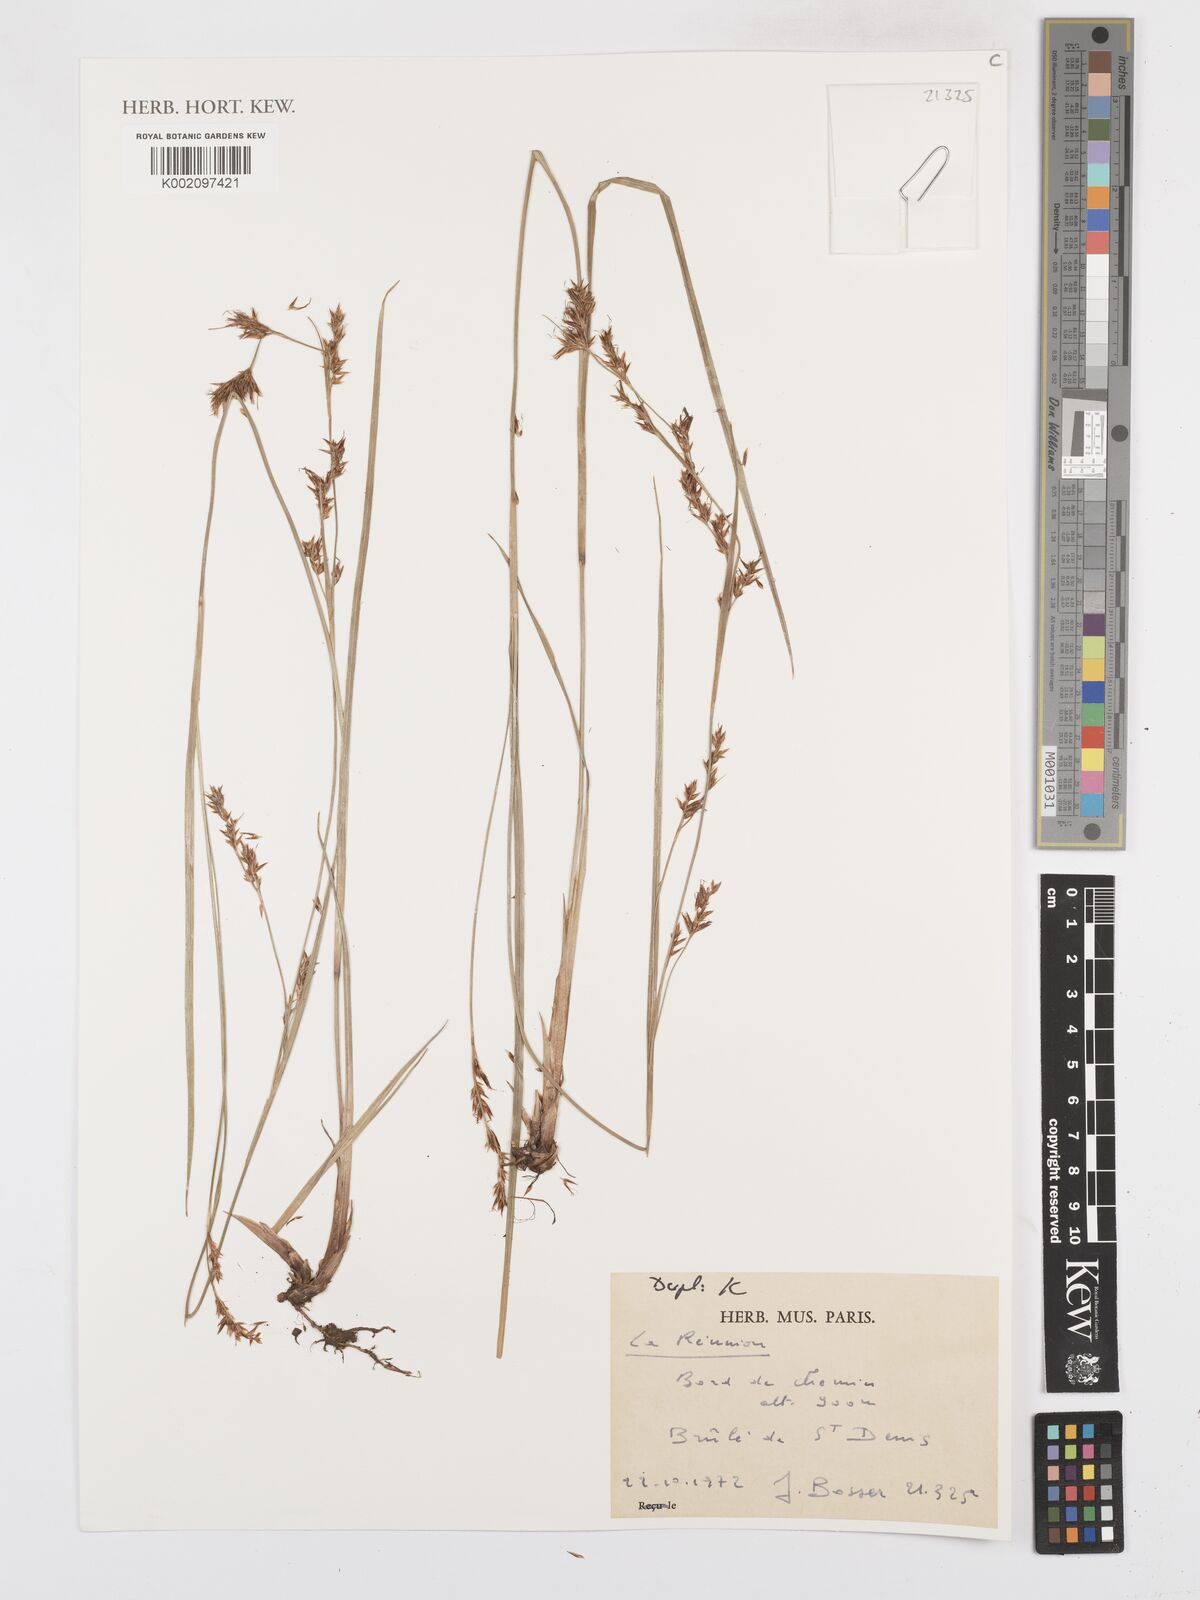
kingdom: Plantae
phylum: Tracheophyta
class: Liliopsida
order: Poales
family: Cyperaceae
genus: Carex
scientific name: Carex
